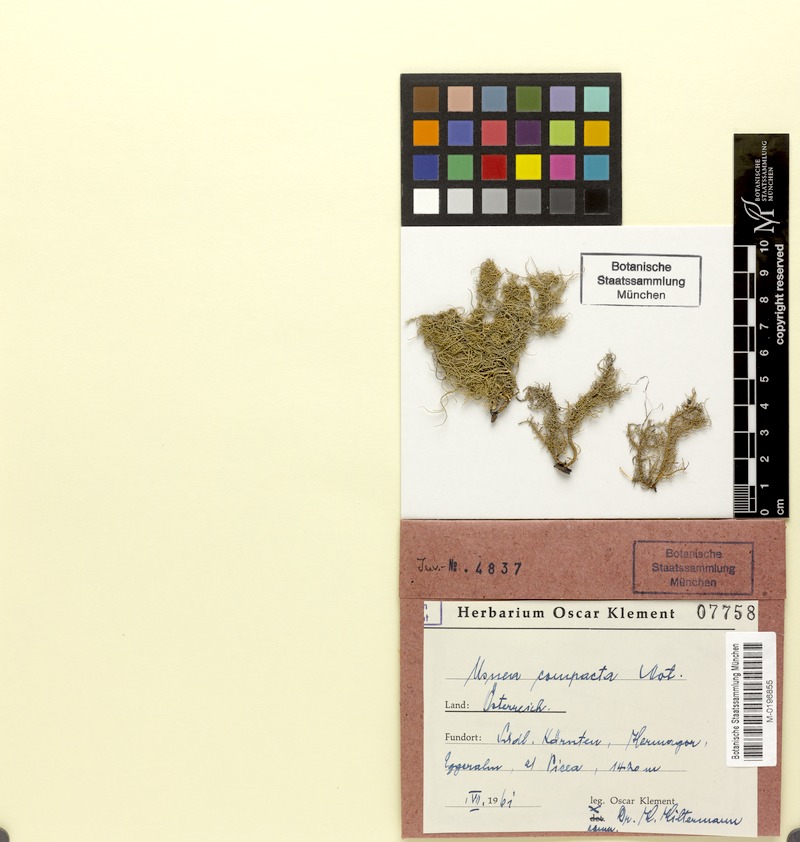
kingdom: Fungi
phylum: Ascomycota
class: Lecanoromycetes
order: Lecanorales
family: Parmeliaceae
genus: Usnea
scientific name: Usnea glabrescens
